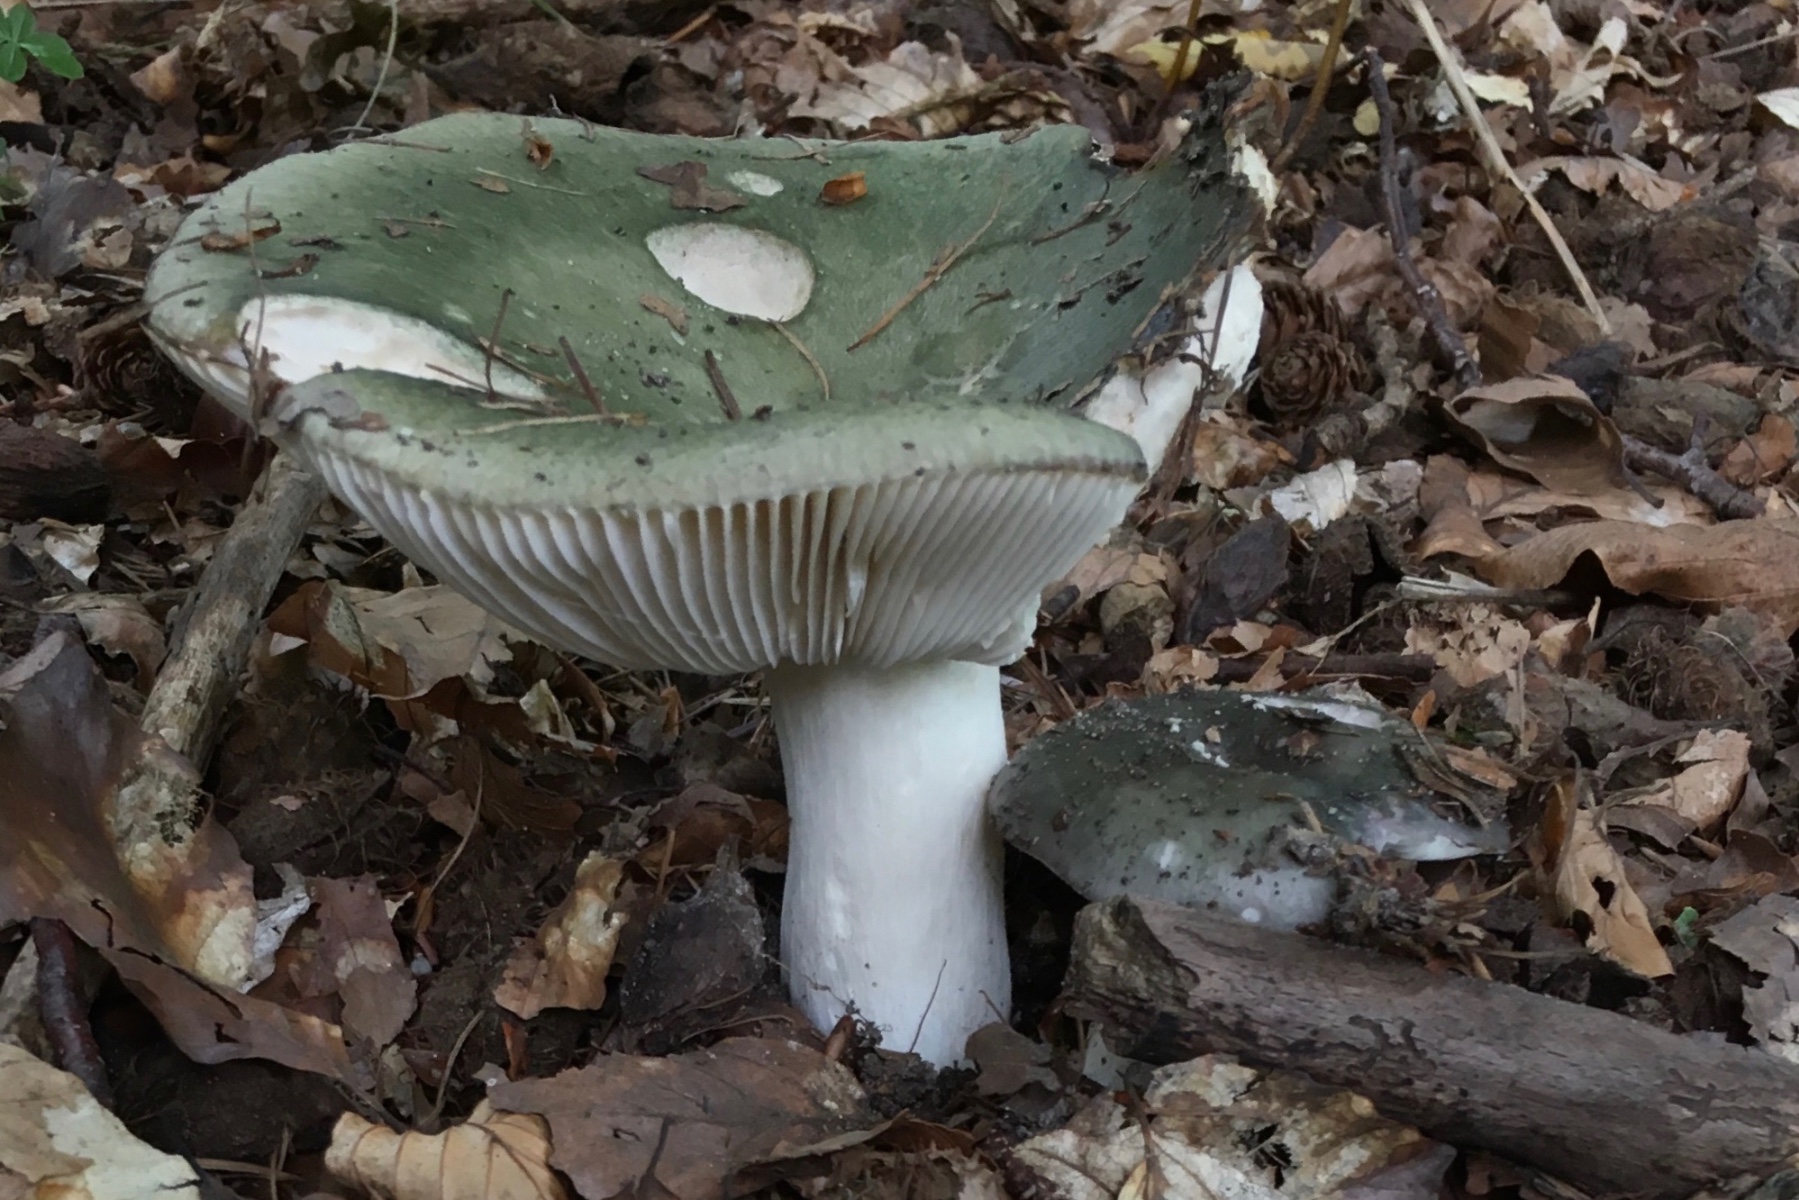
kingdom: Fungi
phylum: Basidiomycota
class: Agaricomycetes
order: Russulales
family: Russulaceae
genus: Russula
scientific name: Russula cyanoxantha
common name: broget skørhat
